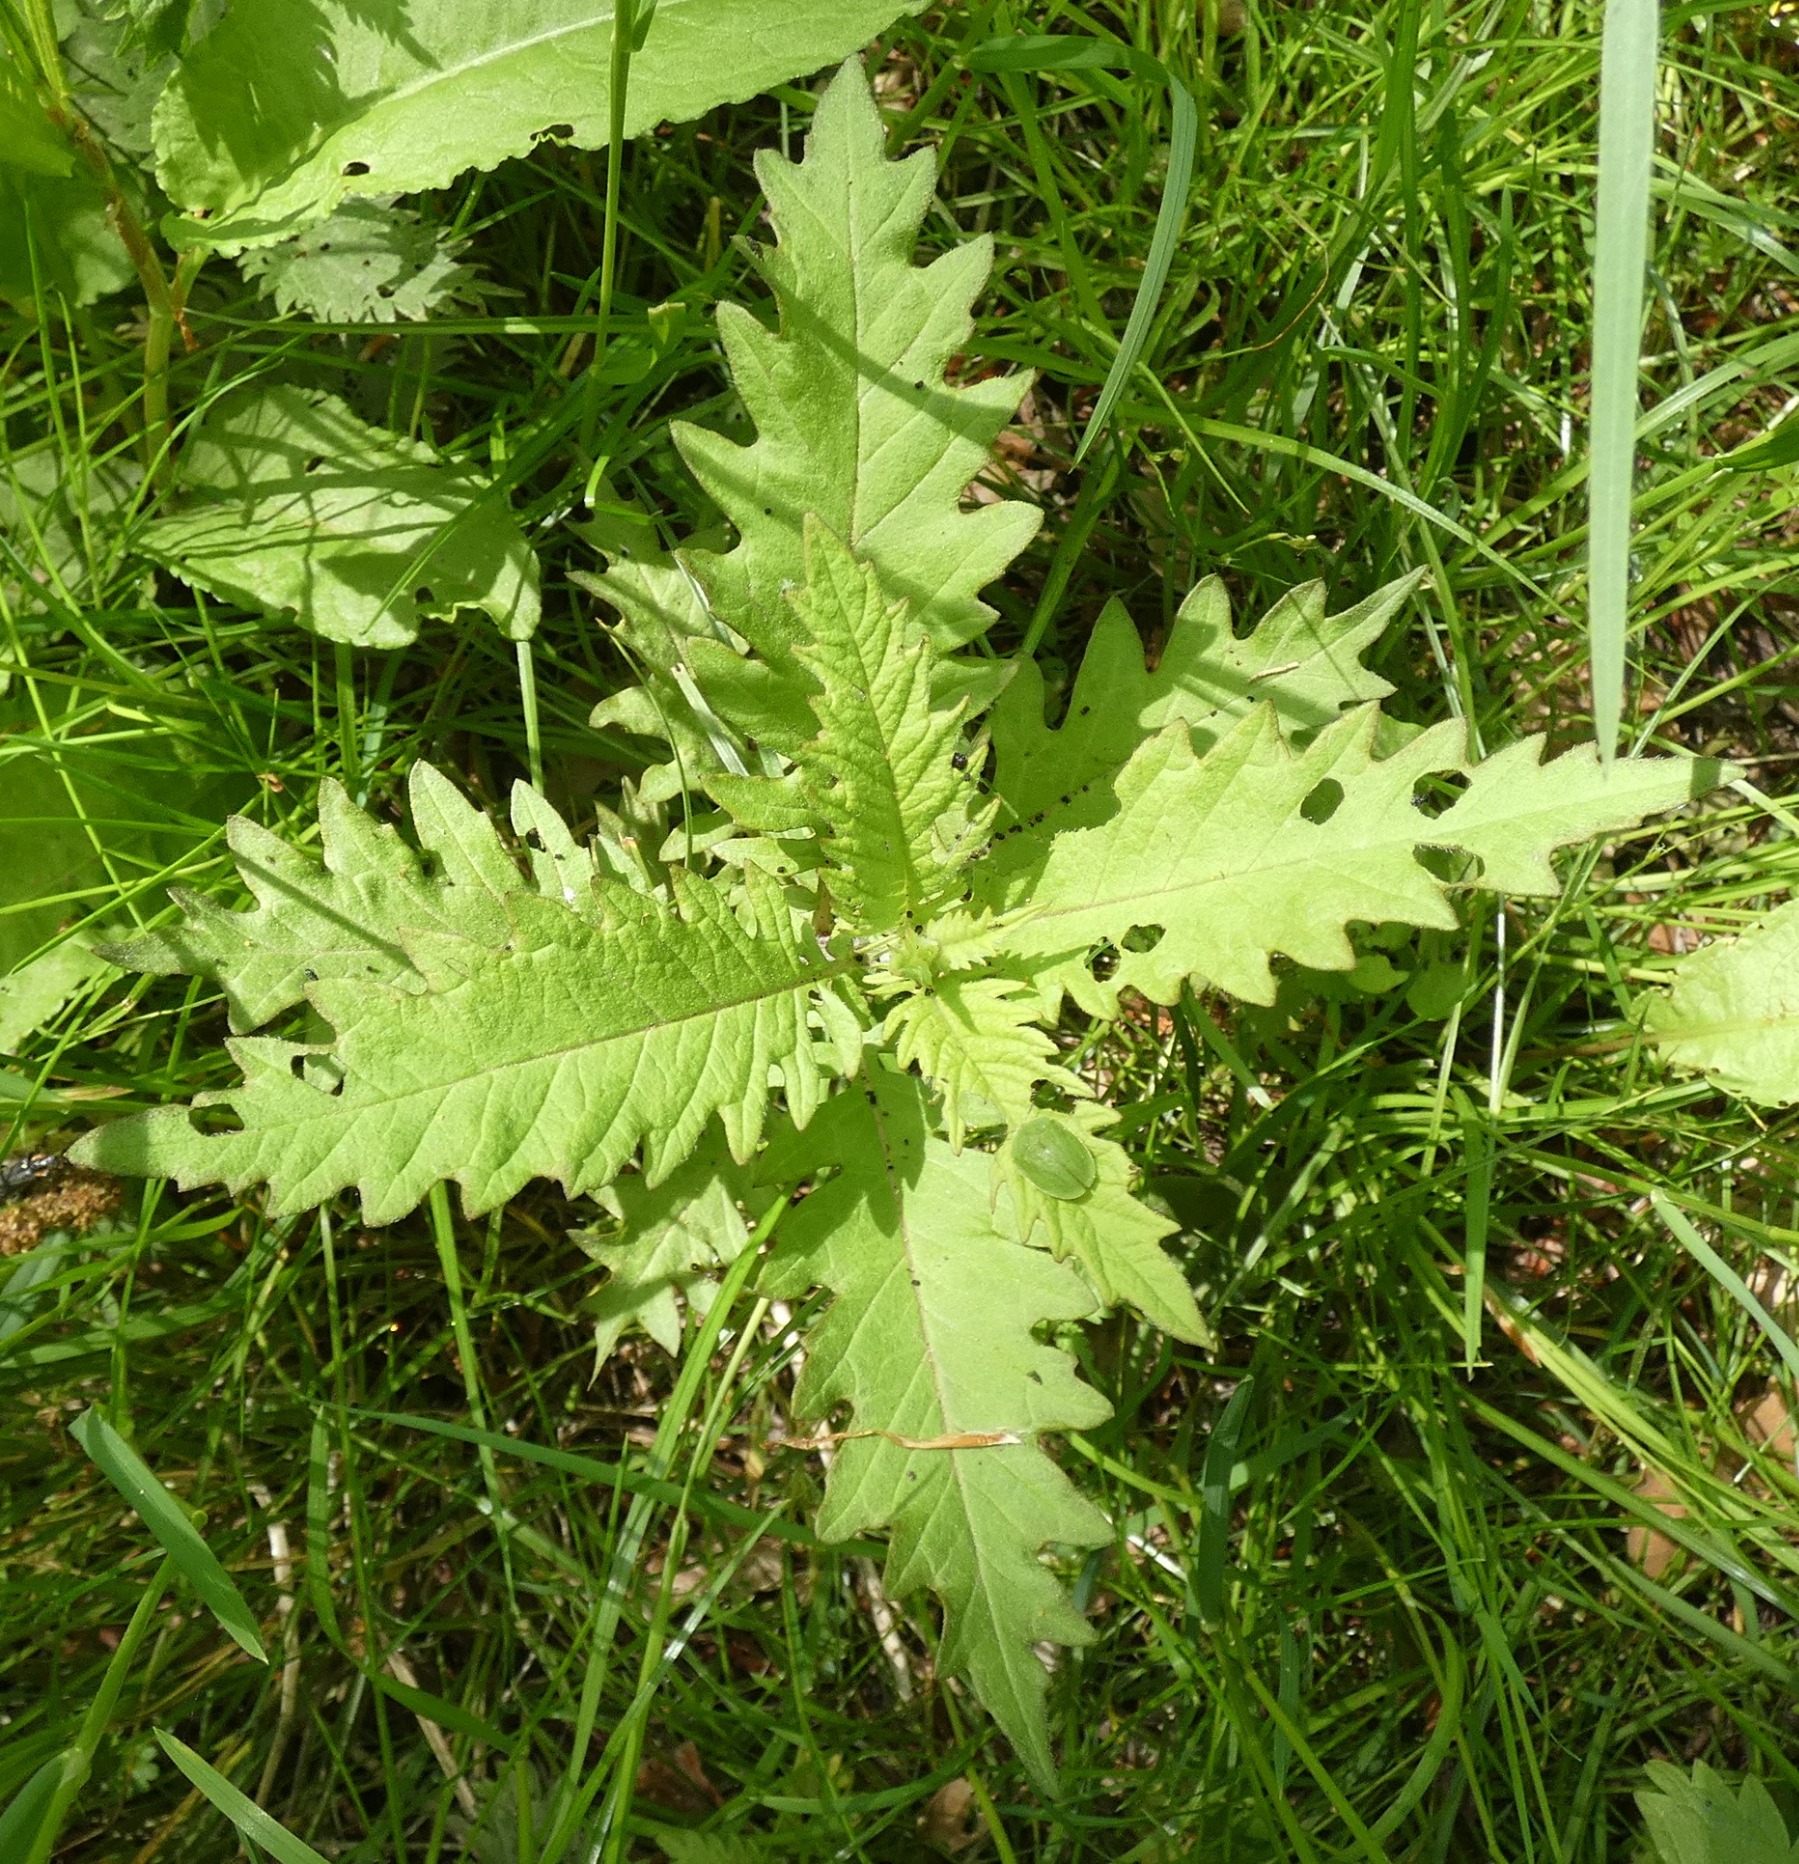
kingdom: Plantae
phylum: Tracheophyta
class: Magnoliopsida
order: Lamiales
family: Lamiaceae
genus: Lycopus
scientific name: Lycopus europaeus
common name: Sværtevæld
